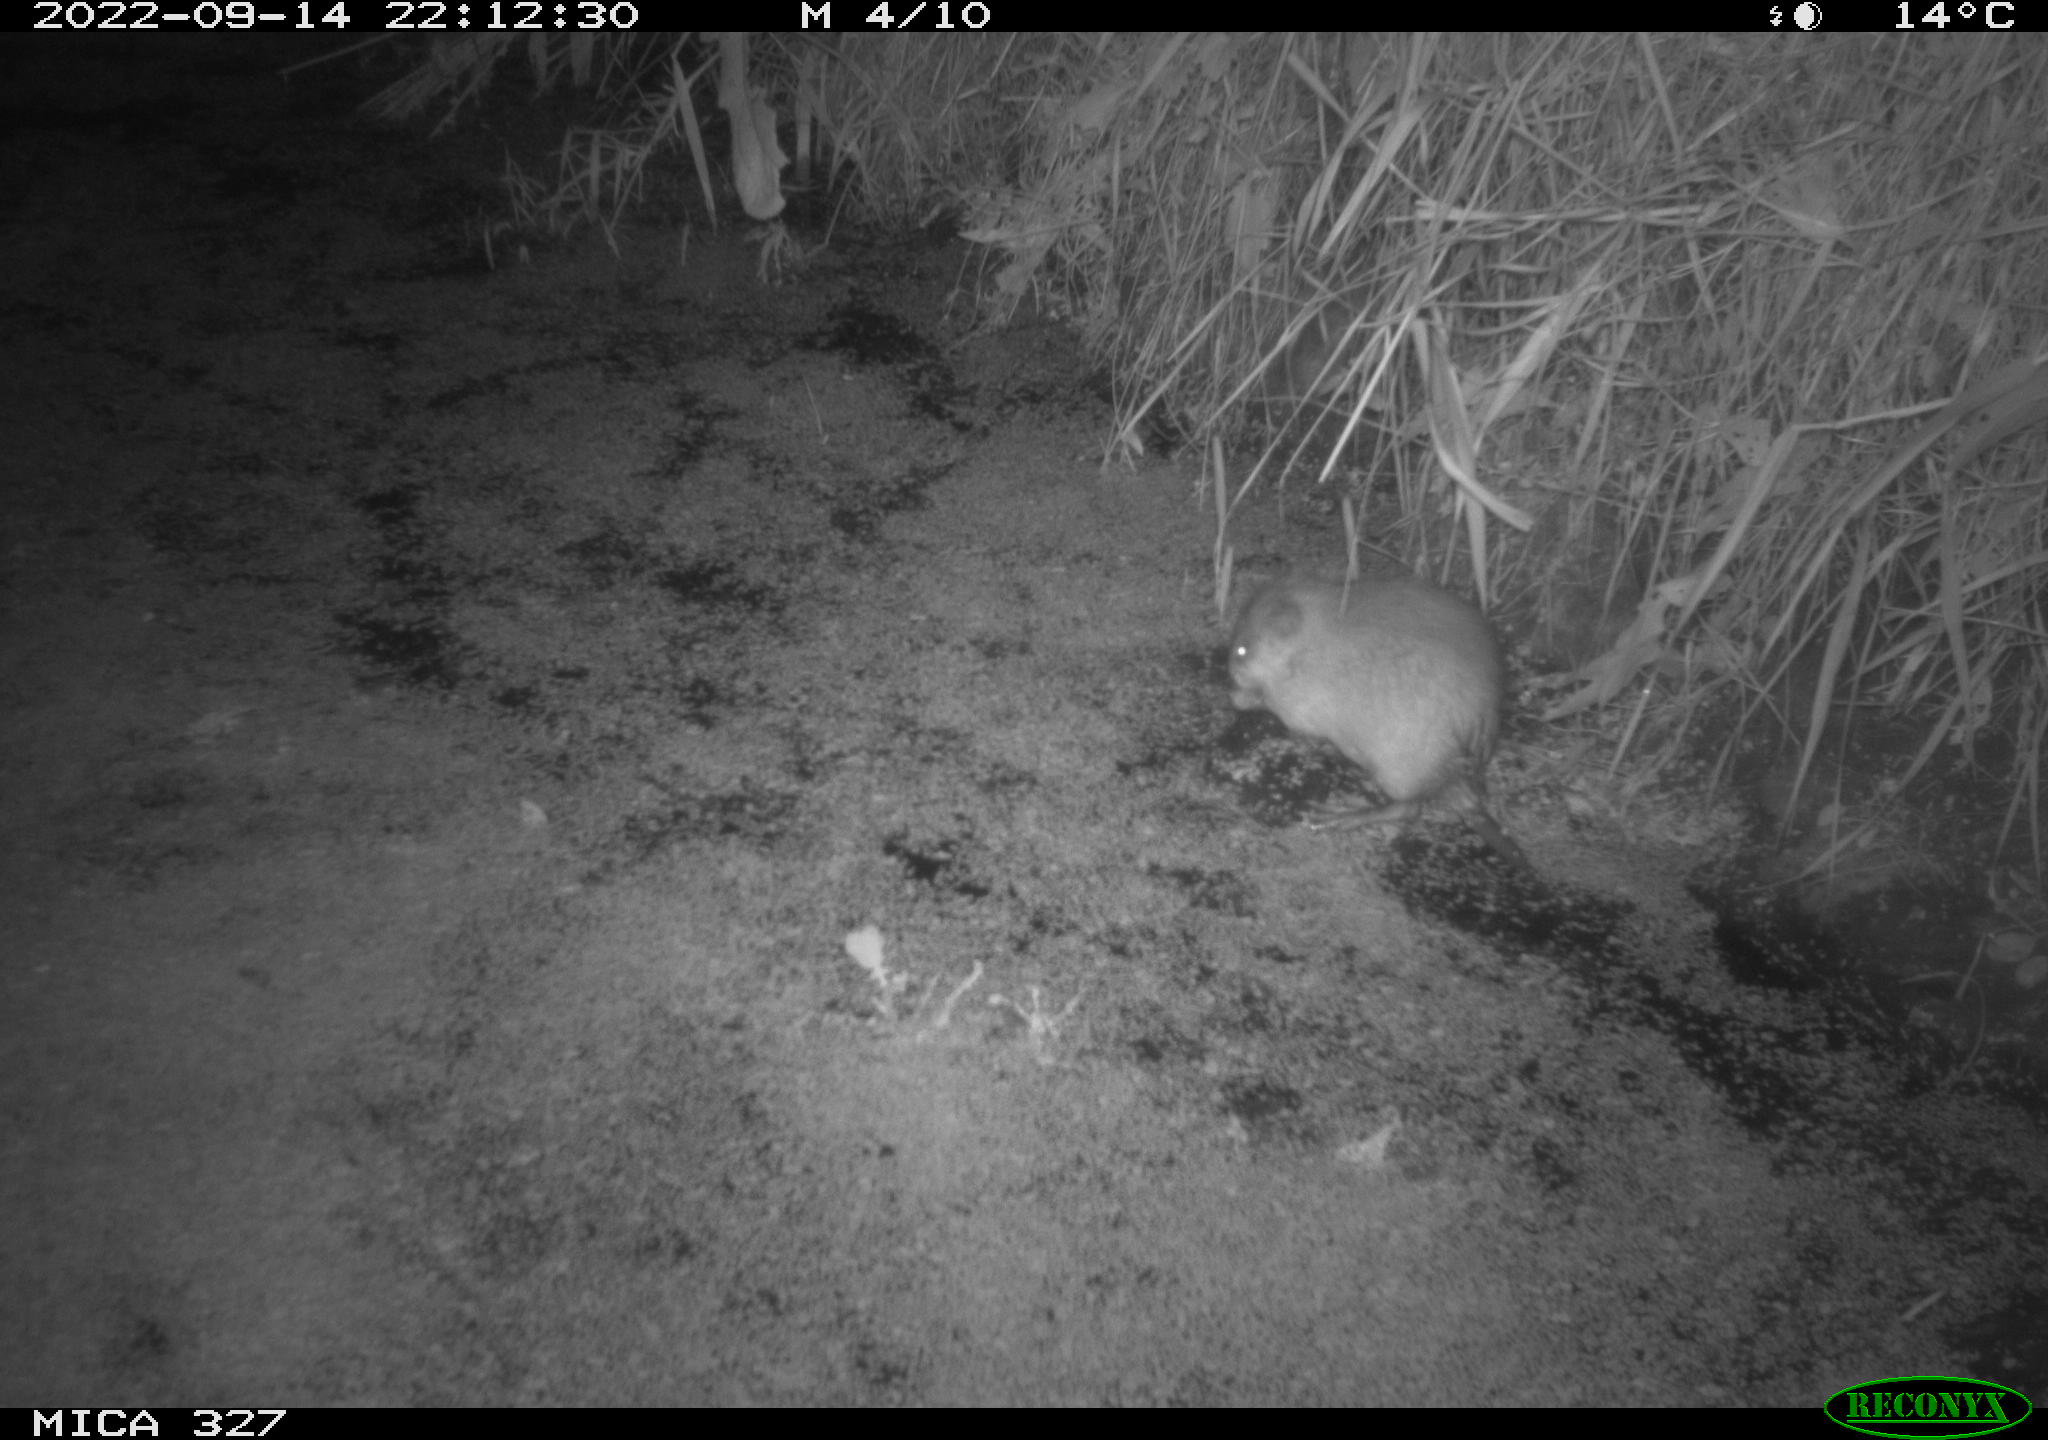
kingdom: Animalia
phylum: Chordata
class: Mammalia
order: Rodentia
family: Cricetidae
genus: Ondatra
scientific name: Ondatra zibethicus
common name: Muskrat
